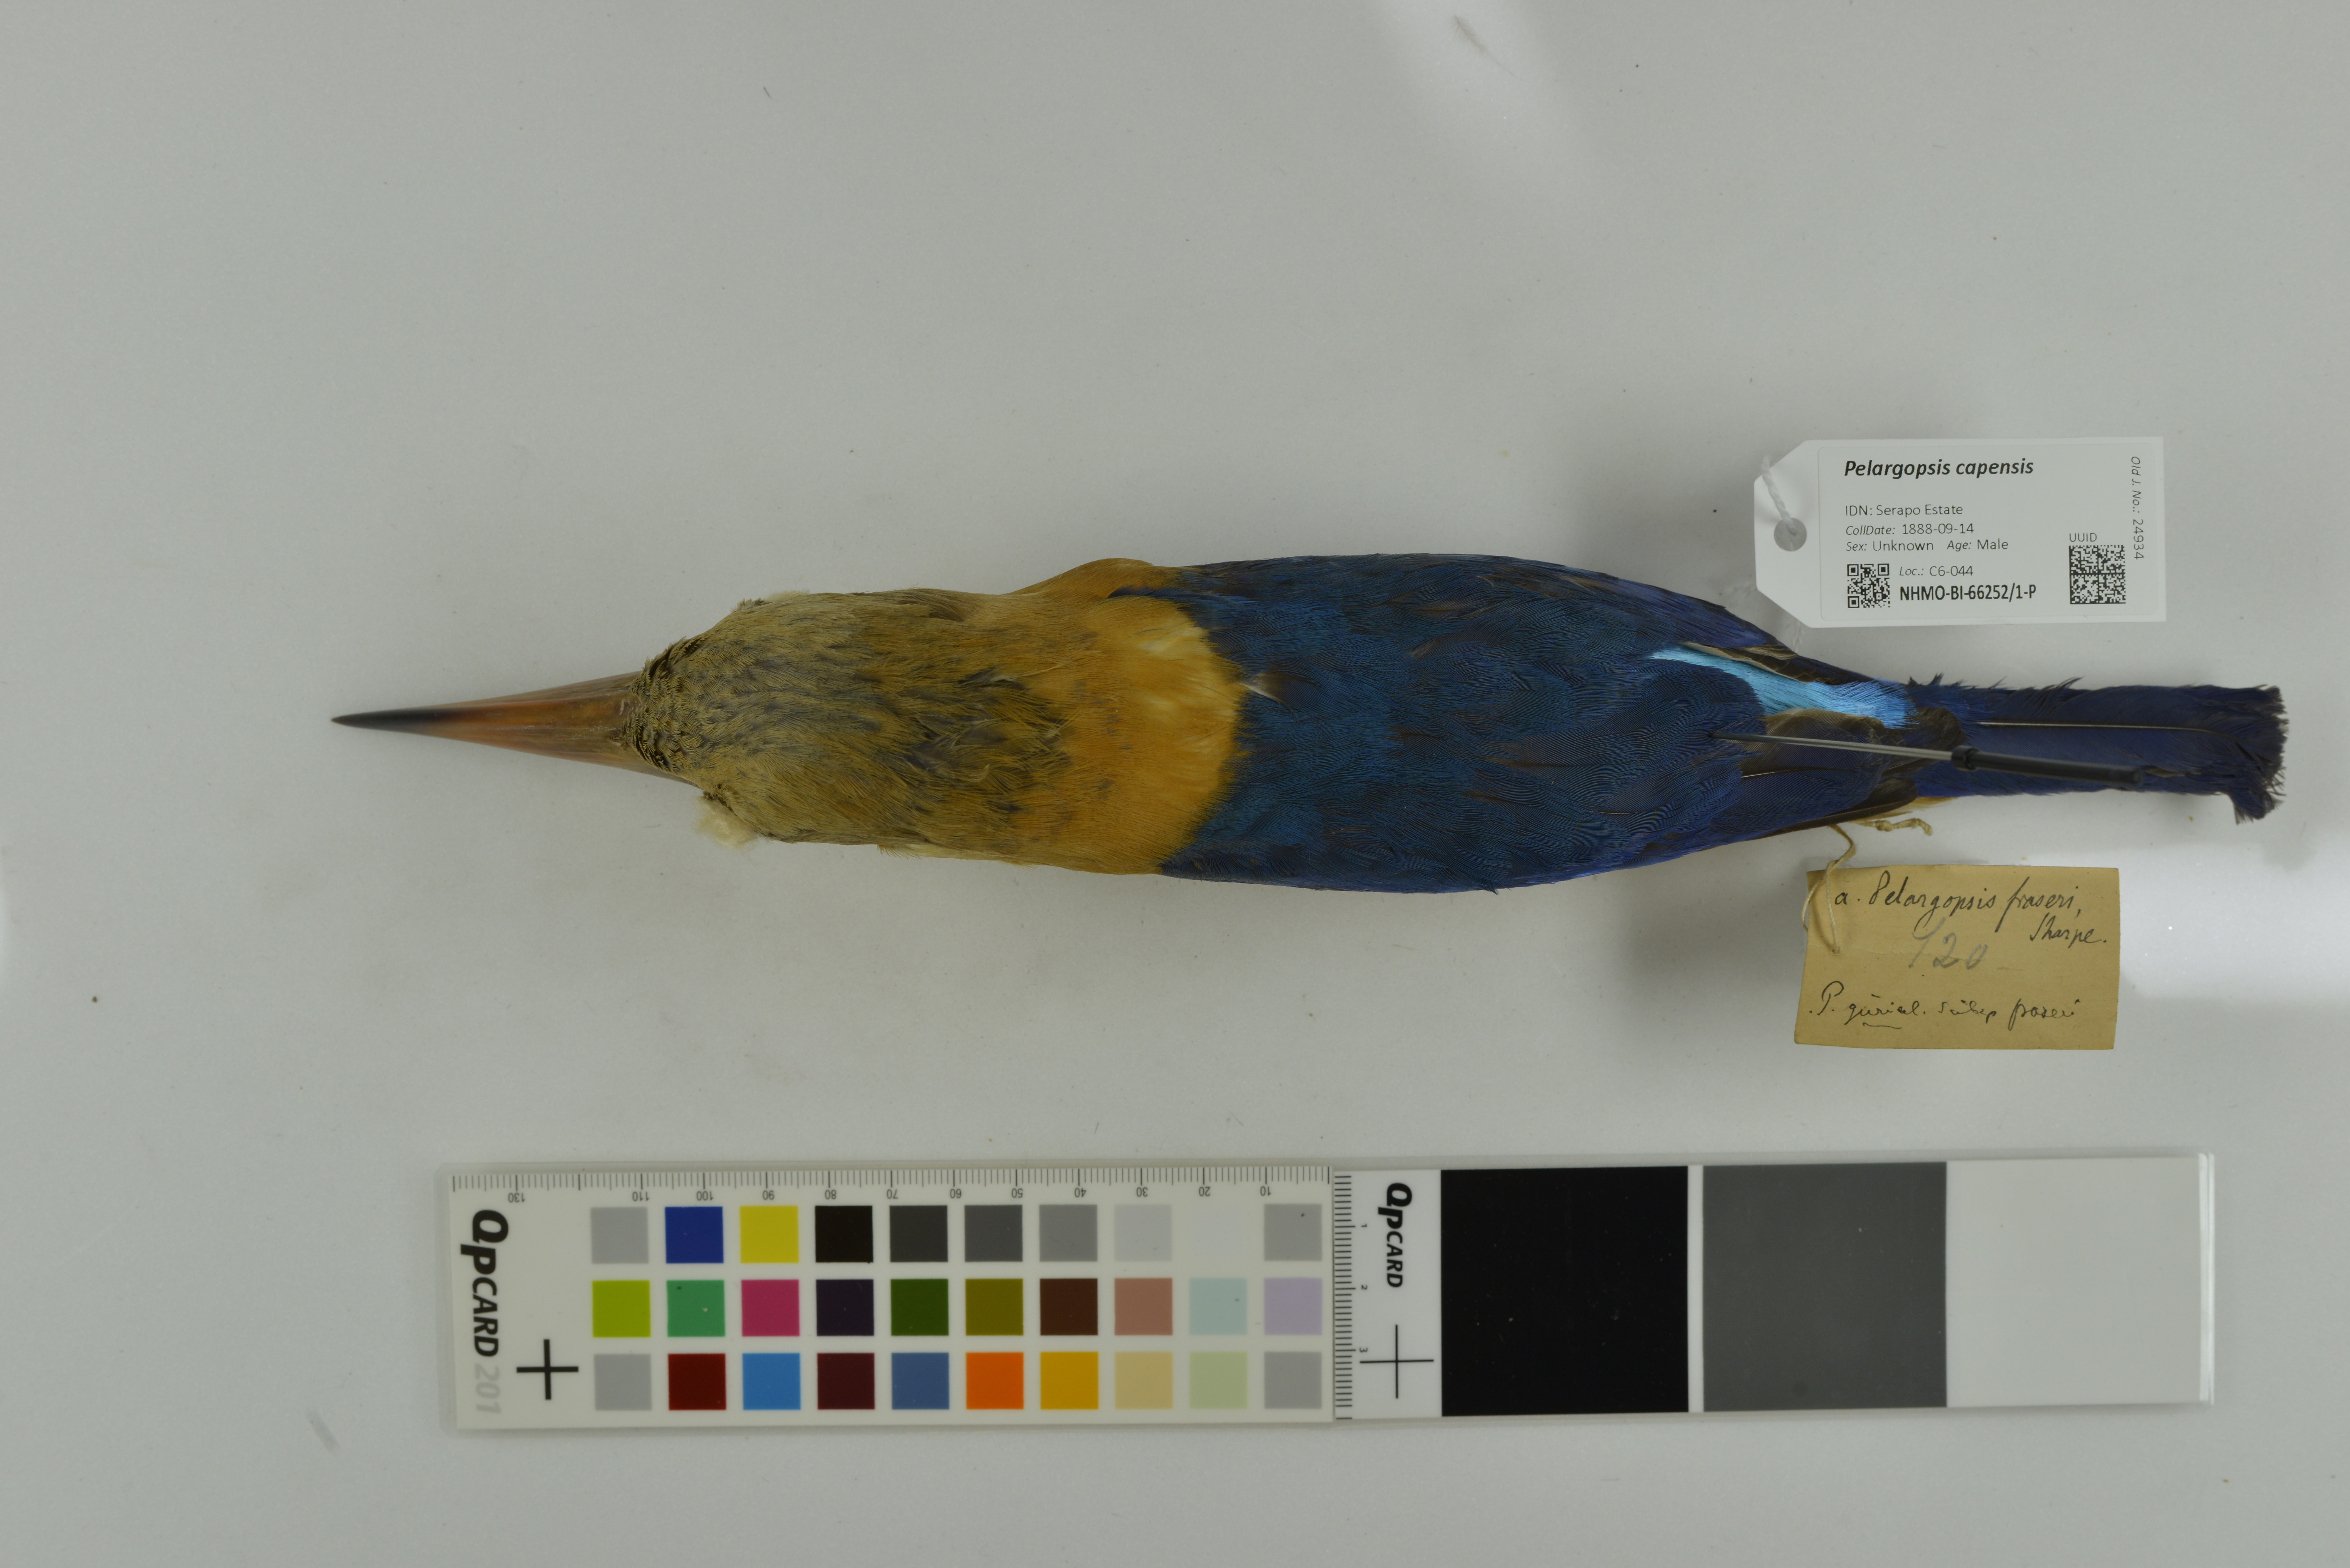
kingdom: Animalia
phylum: Chordata
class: Aves
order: Coraciiformes
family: Alcedinidae
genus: Pelargopsis
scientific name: Pelargopsis capensis
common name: Stork-billed kingfisher
